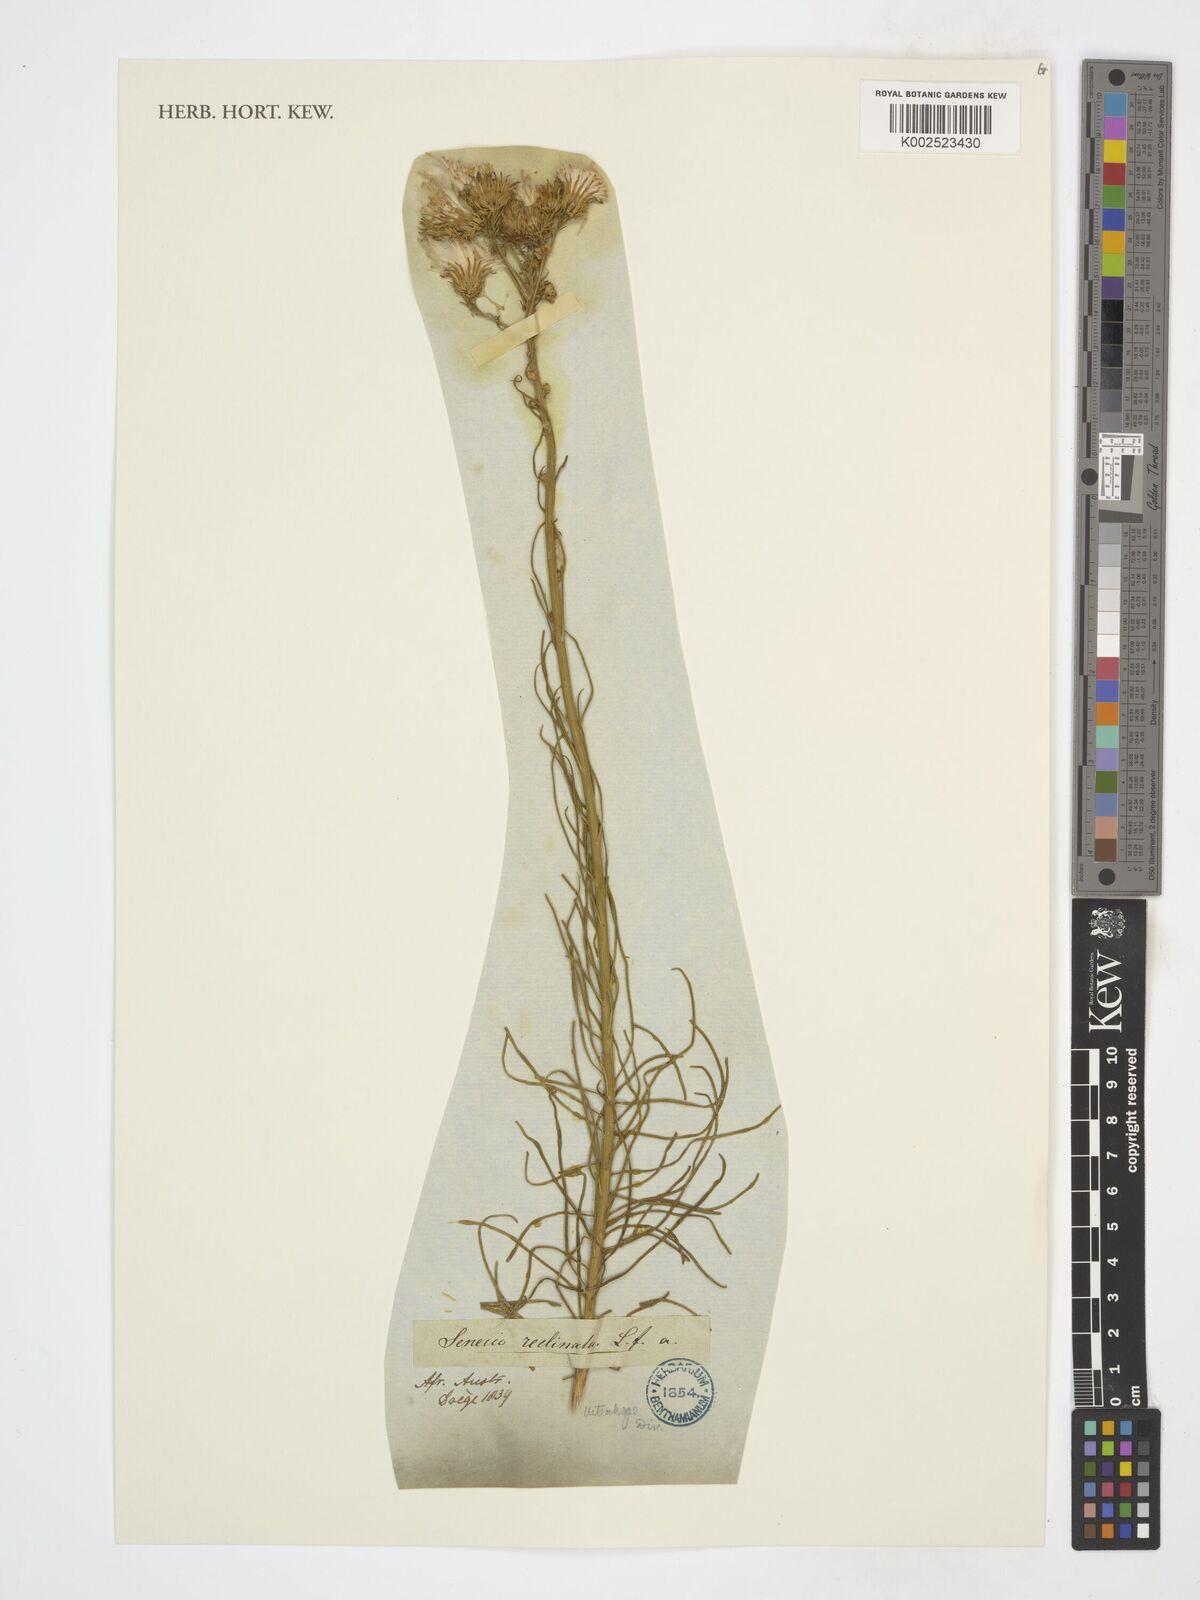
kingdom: Plantae
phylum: Tracheophyta
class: Magnoliopsida
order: Asterales
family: Asteraceae
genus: Senecio
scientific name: Senecio
